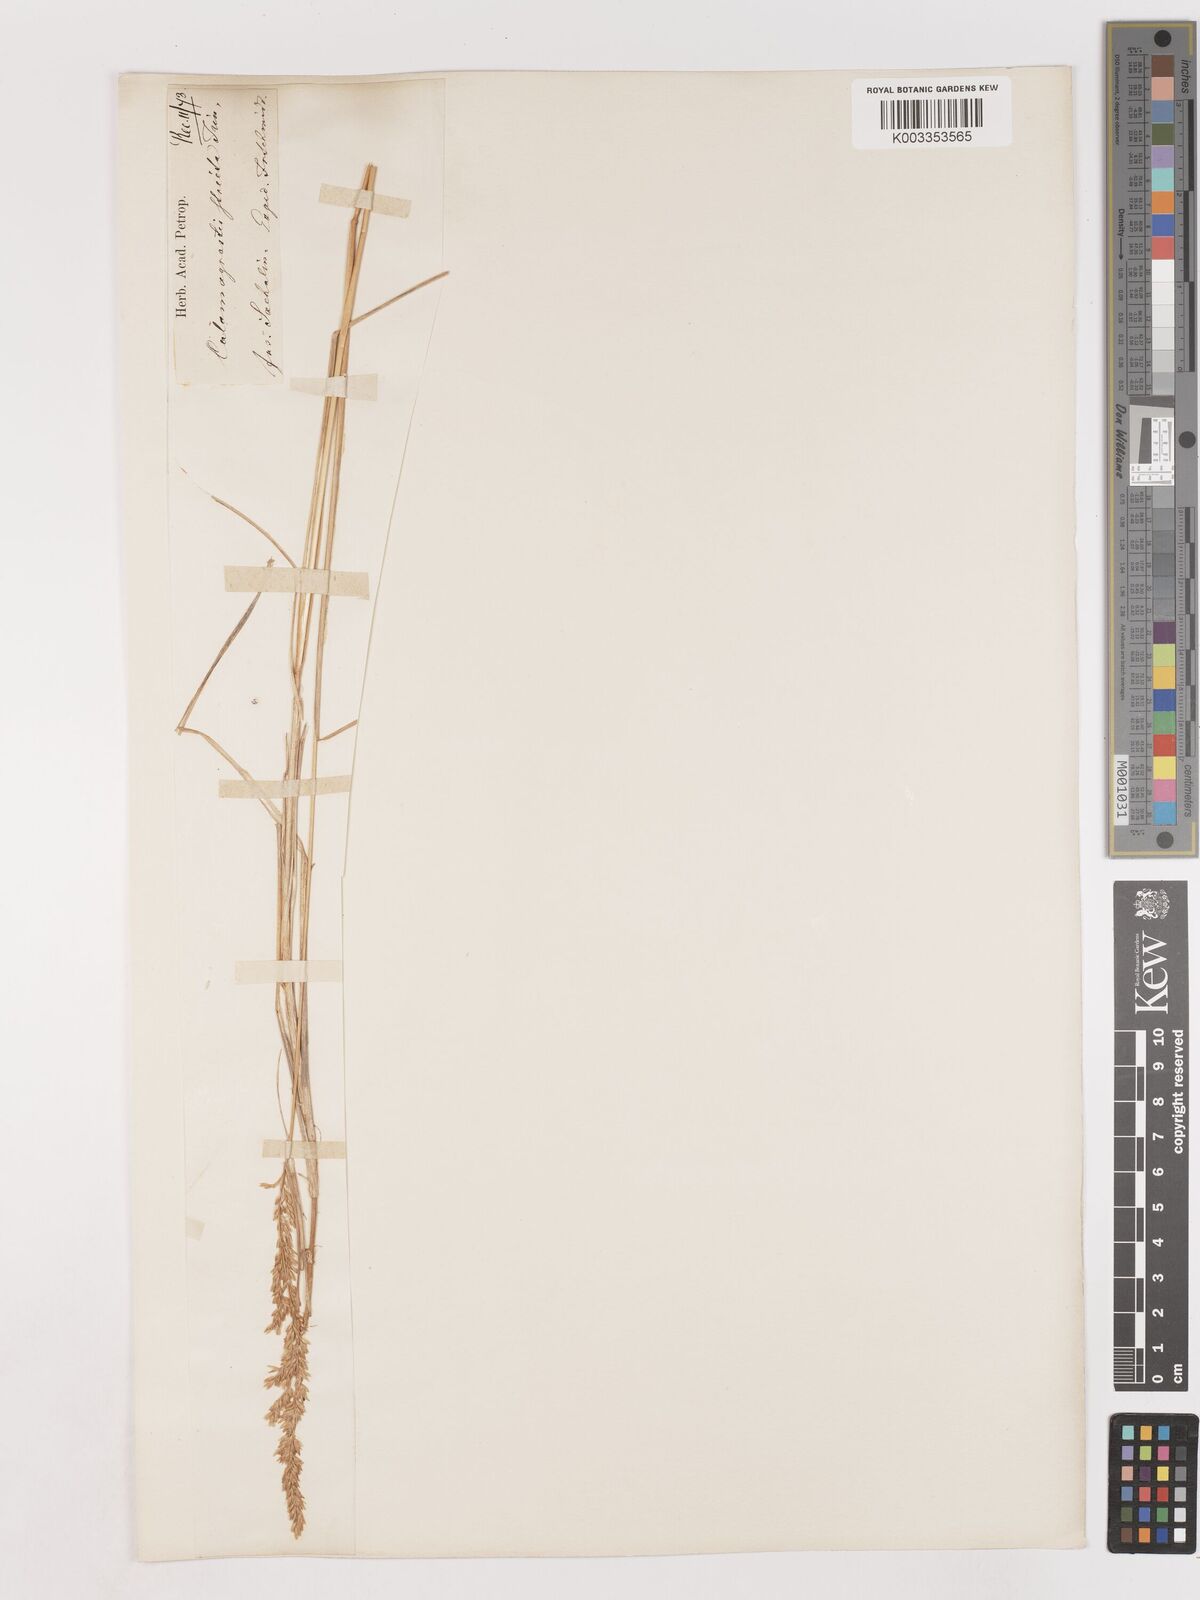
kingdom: Plantae
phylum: Tracheophyta
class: Liliopsida
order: Poales
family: Poaceae
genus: Cinnagrostis
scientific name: Cinnagrostis spicigera
